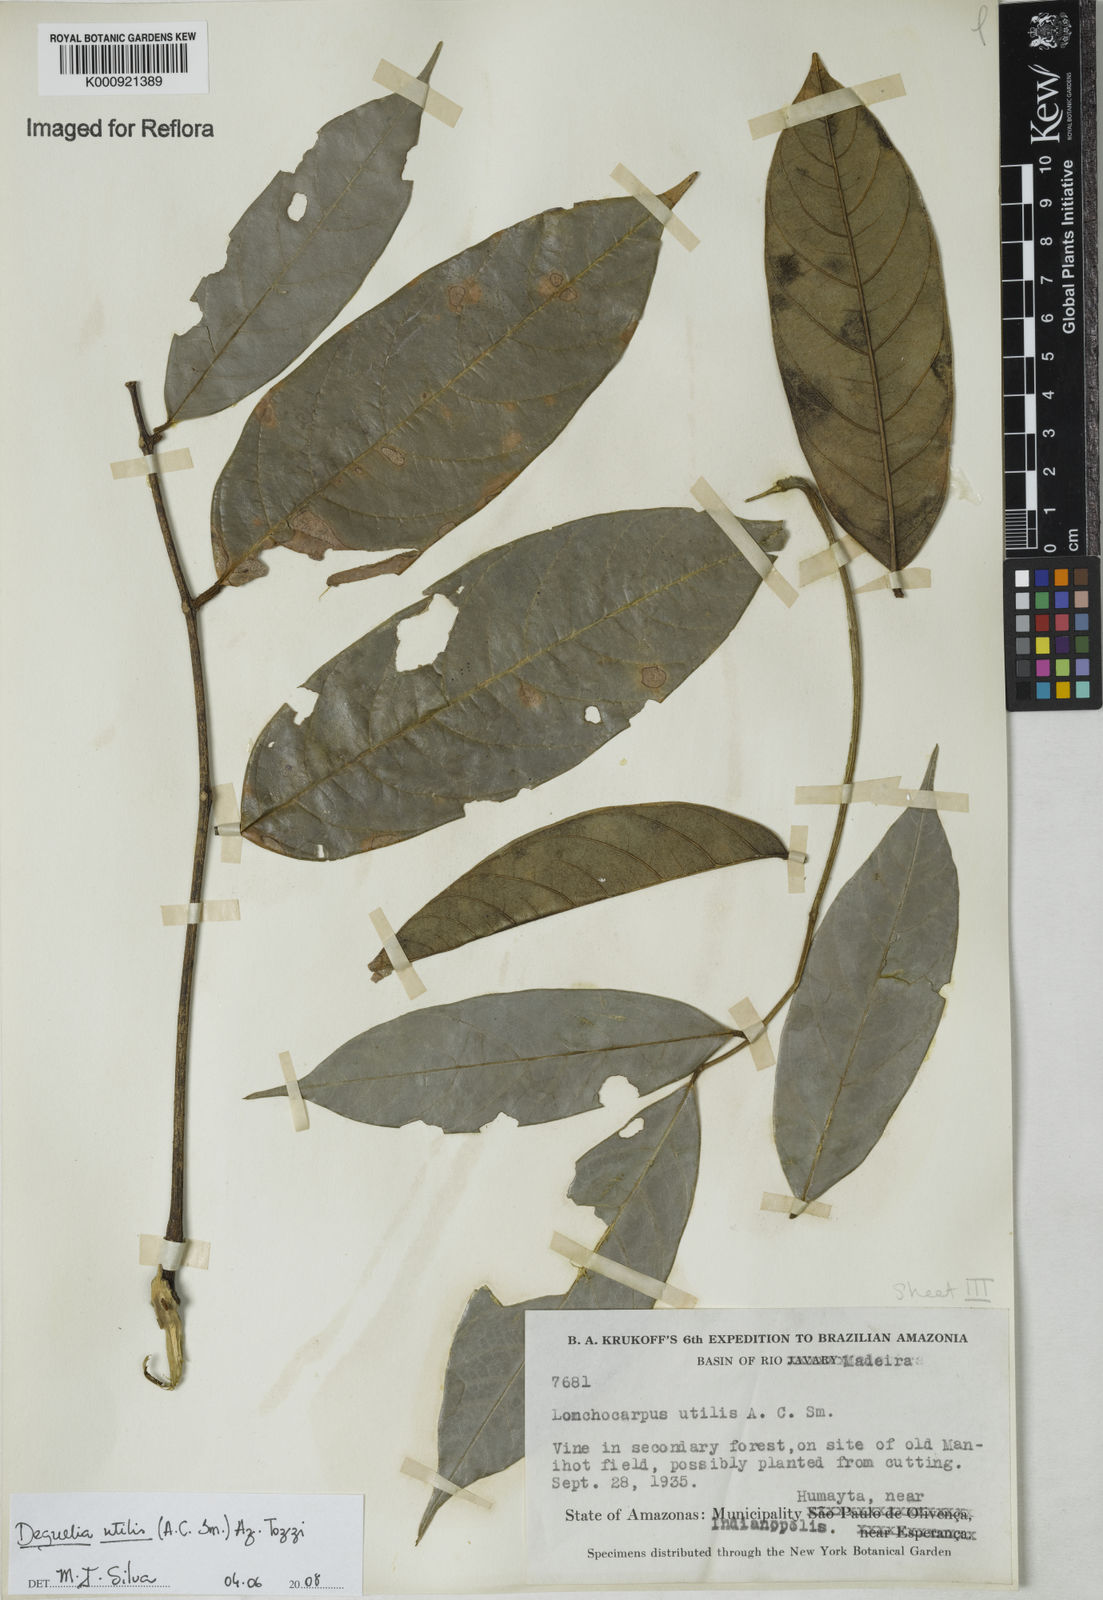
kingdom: Plantae
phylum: Tracheophyta
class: Magnoliopsida
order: Fabales
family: Fabaceae
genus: Deguelia
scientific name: Deguelia utilis
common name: Timbo
